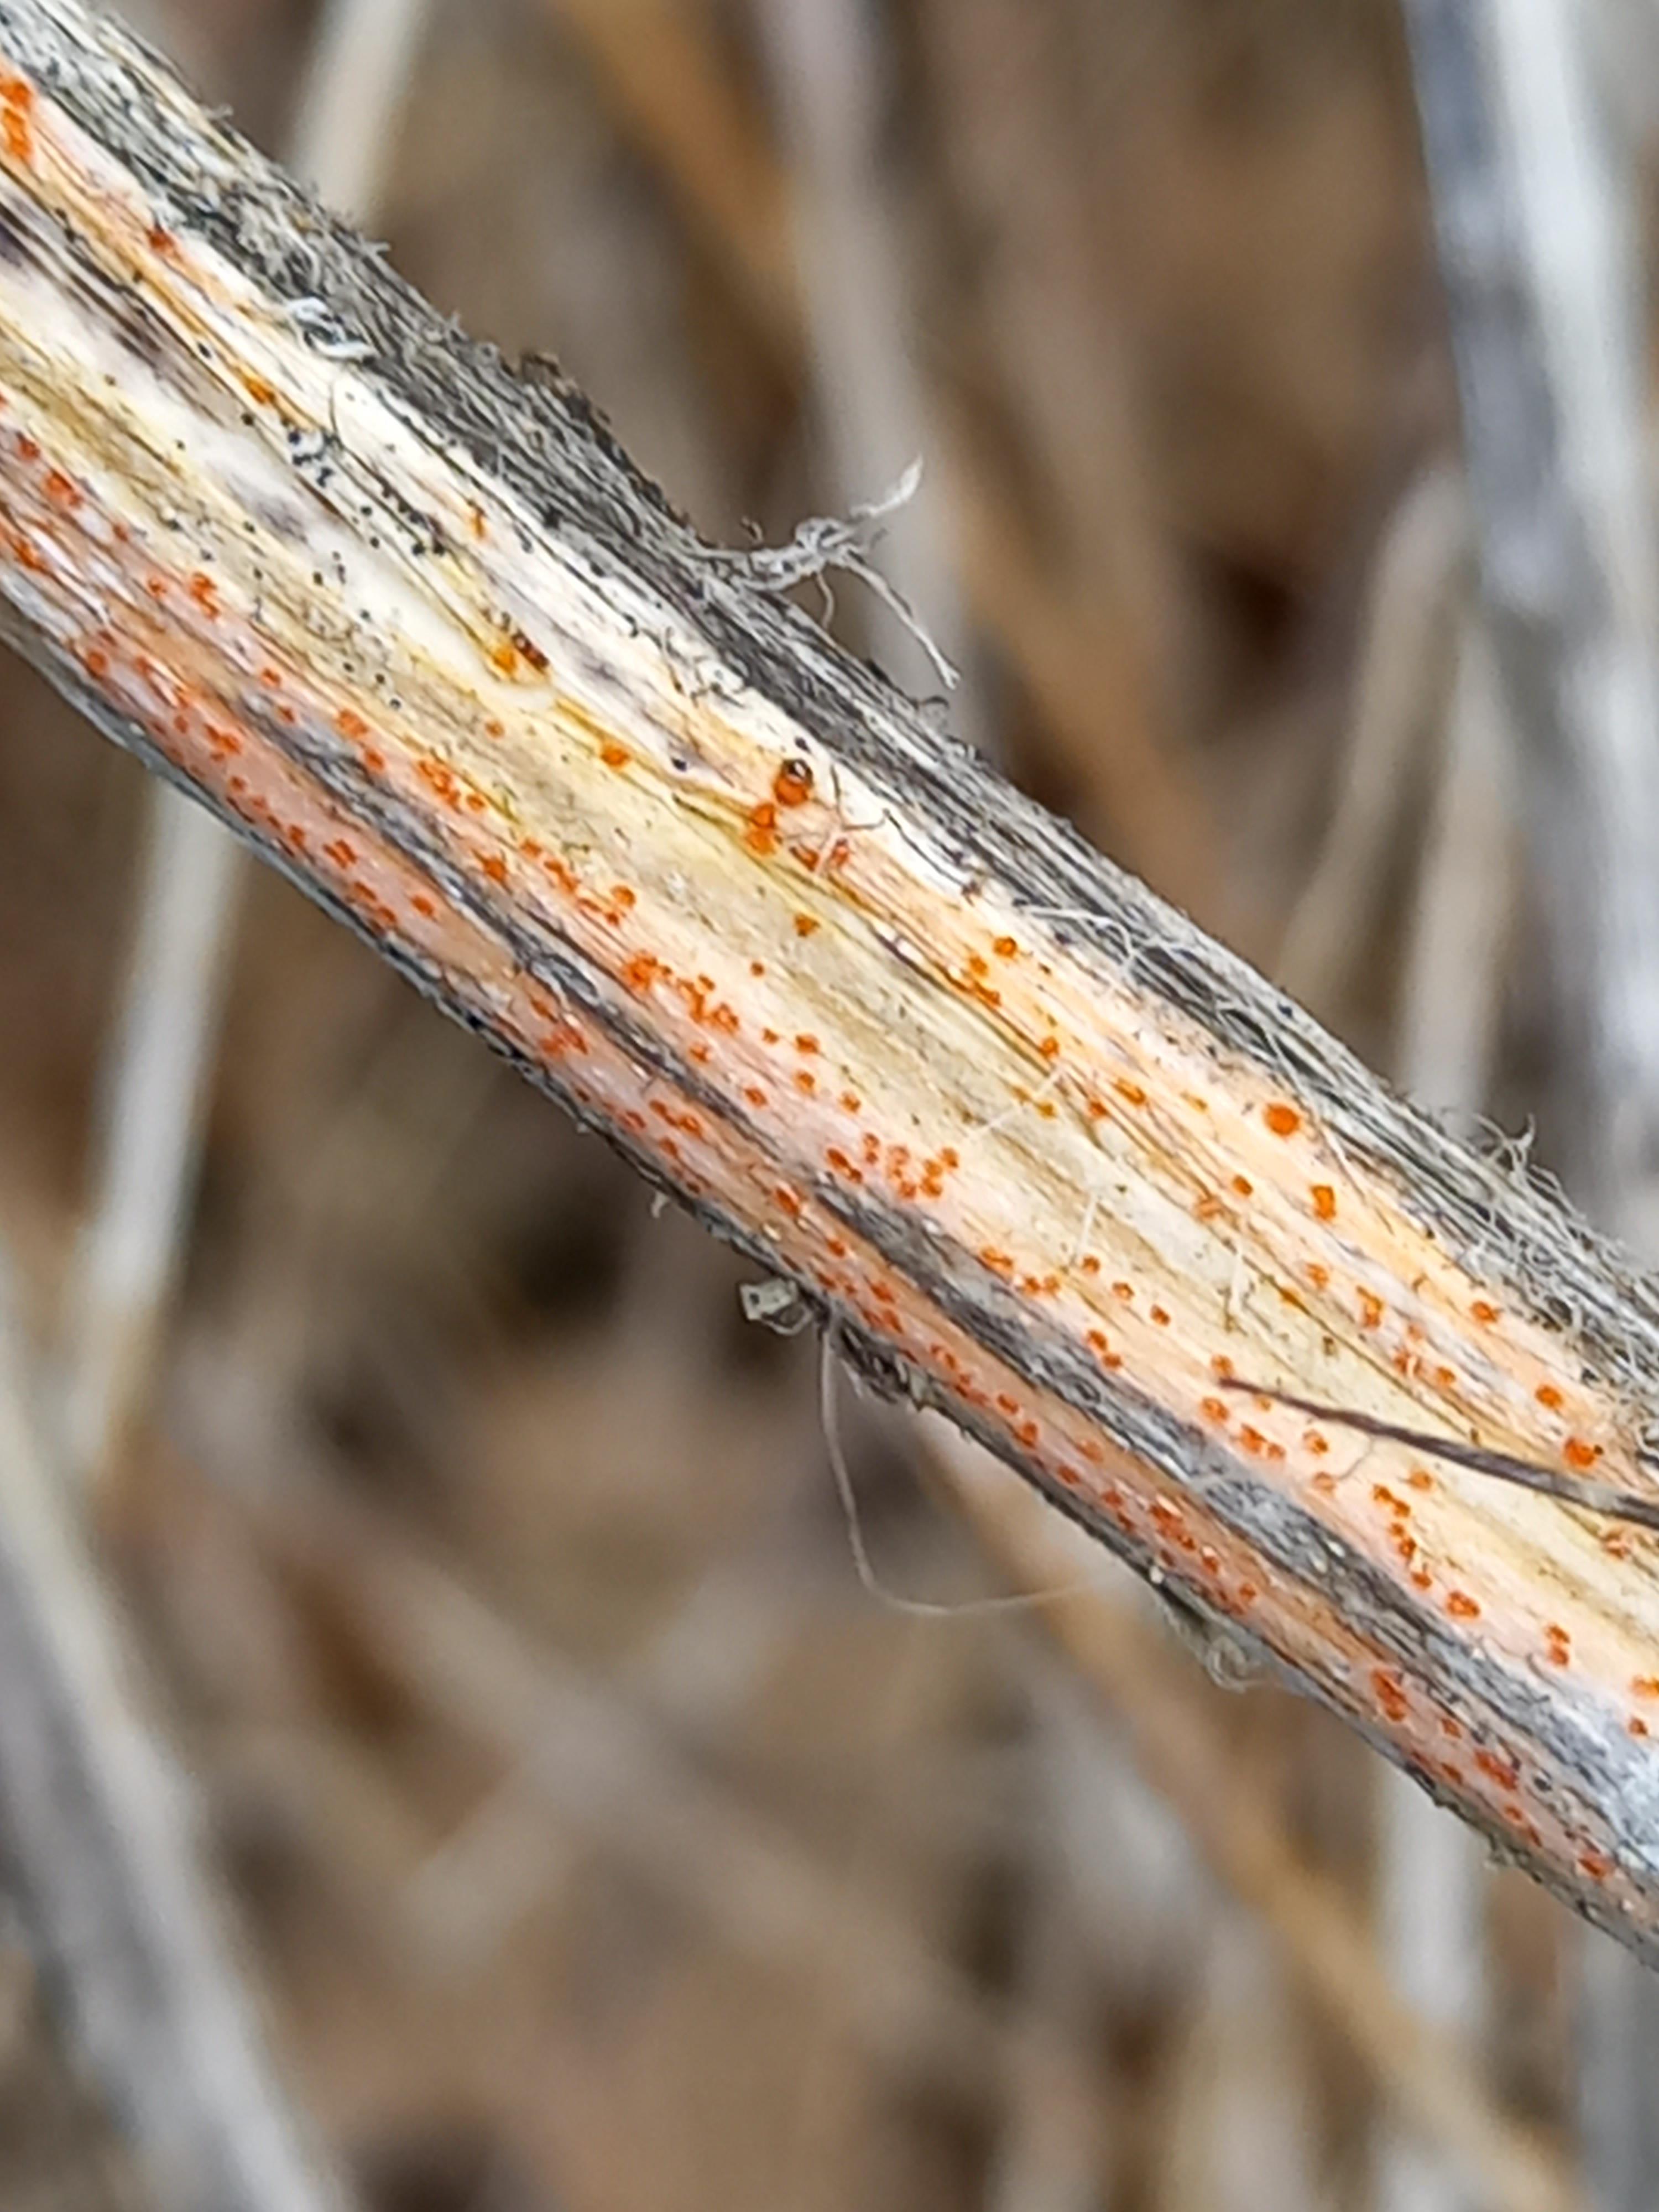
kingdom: Fungi
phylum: Ascomycota
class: Leotiomycetes
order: Helotiales
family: Calloriaceae
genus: Calloria
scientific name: Calloria urticae
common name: nælde-orangeskive
